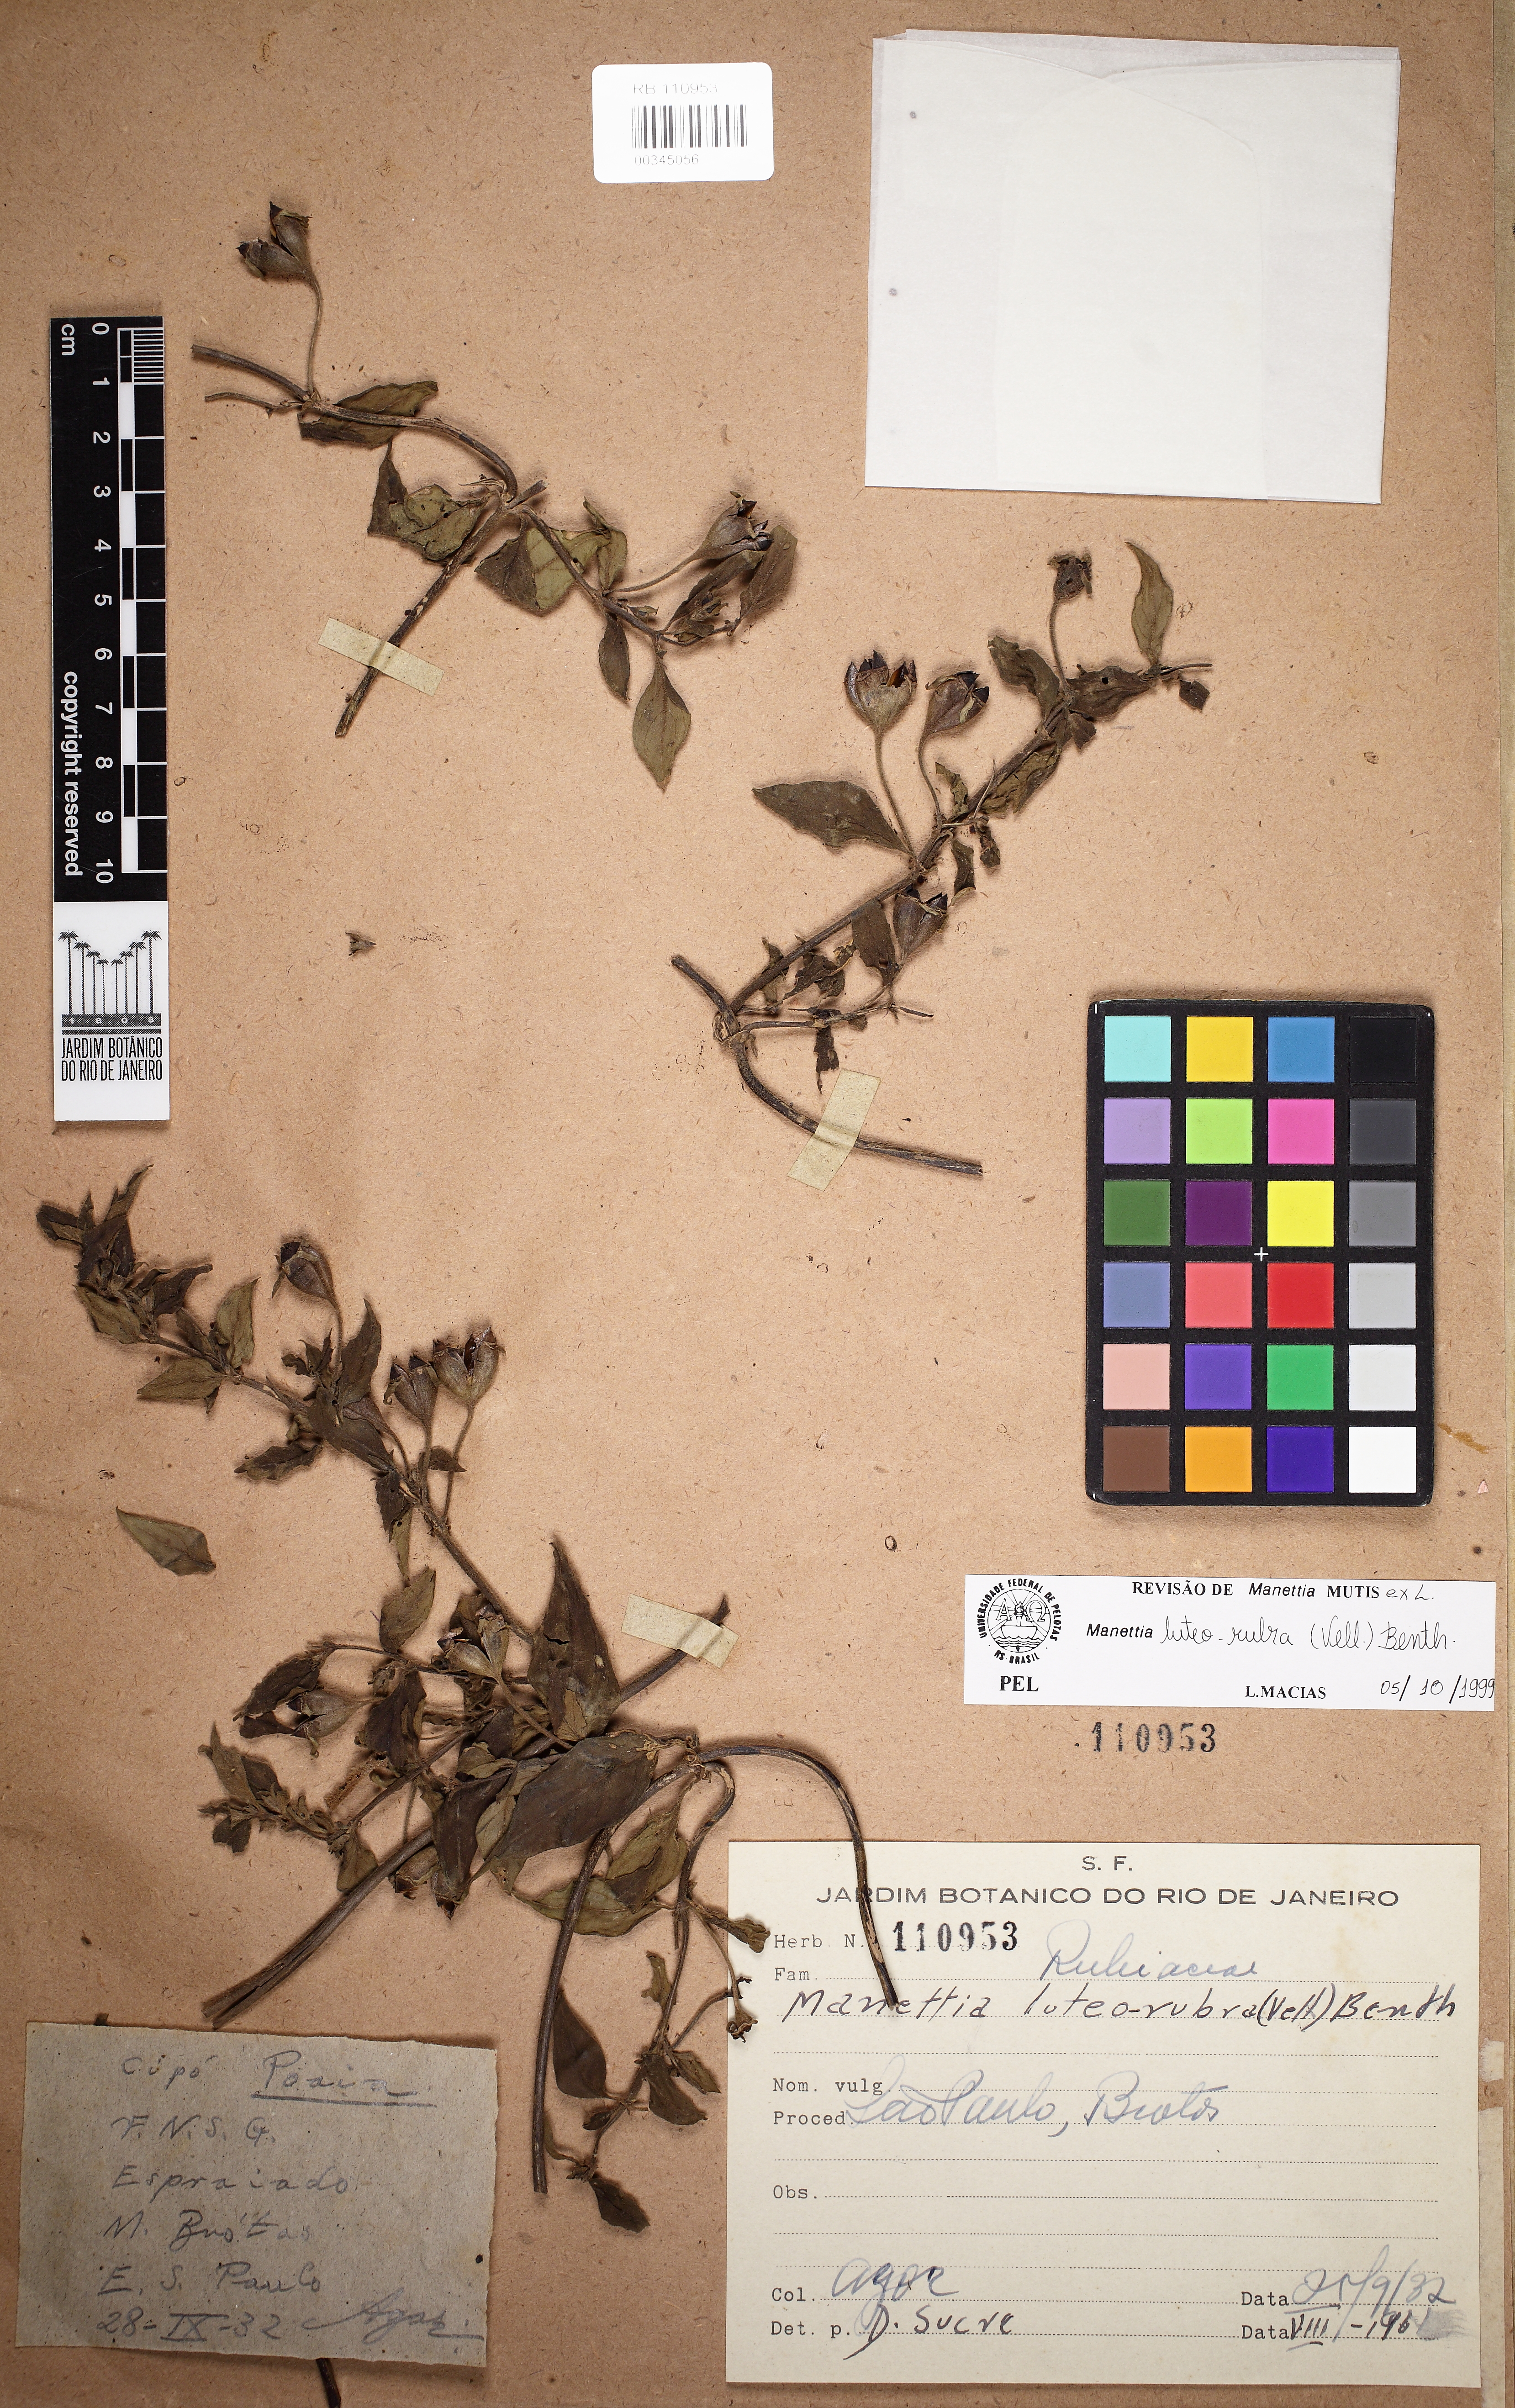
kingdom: Plantae
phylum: Tracheophyta
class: Magnoliopsida
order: Gentianales
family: Rubiaceae
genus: Manettia
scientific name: Manettia luteorubra
